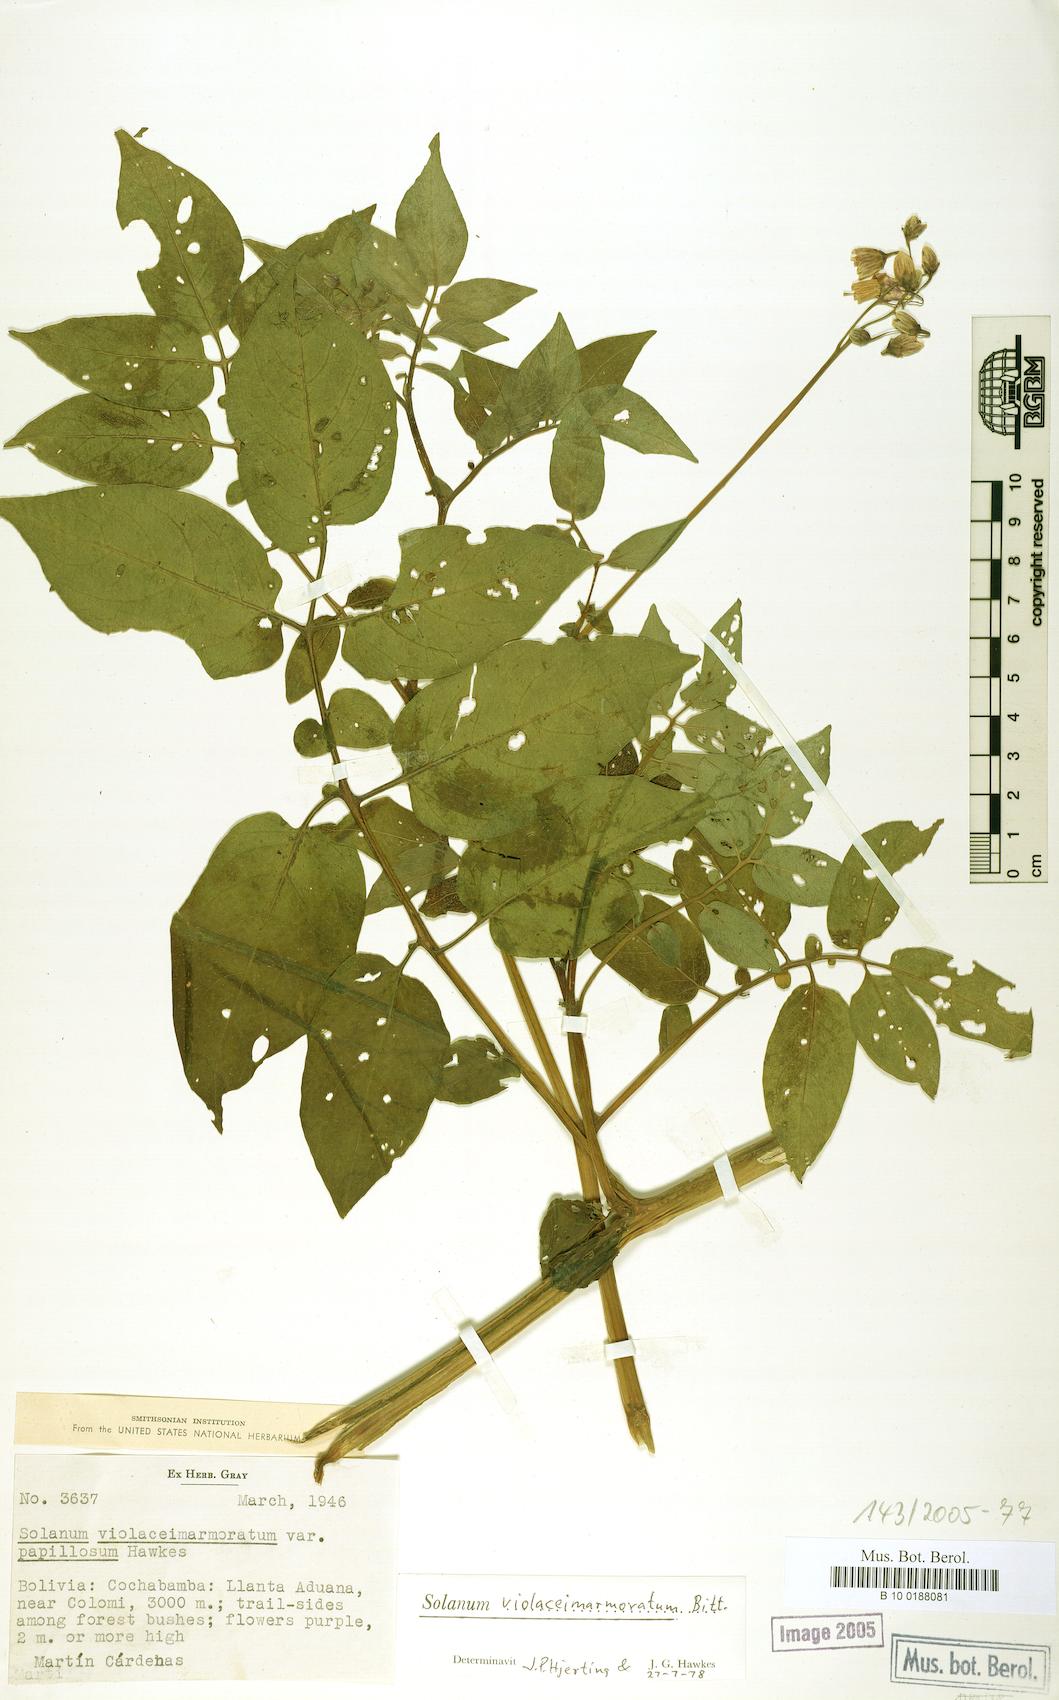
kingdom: Plantae
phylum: Tracheophyta
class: Magnoliopsida
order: Solanales
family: Solanaceae
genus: Solanum
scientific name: Solanum violaceimarmoratum
